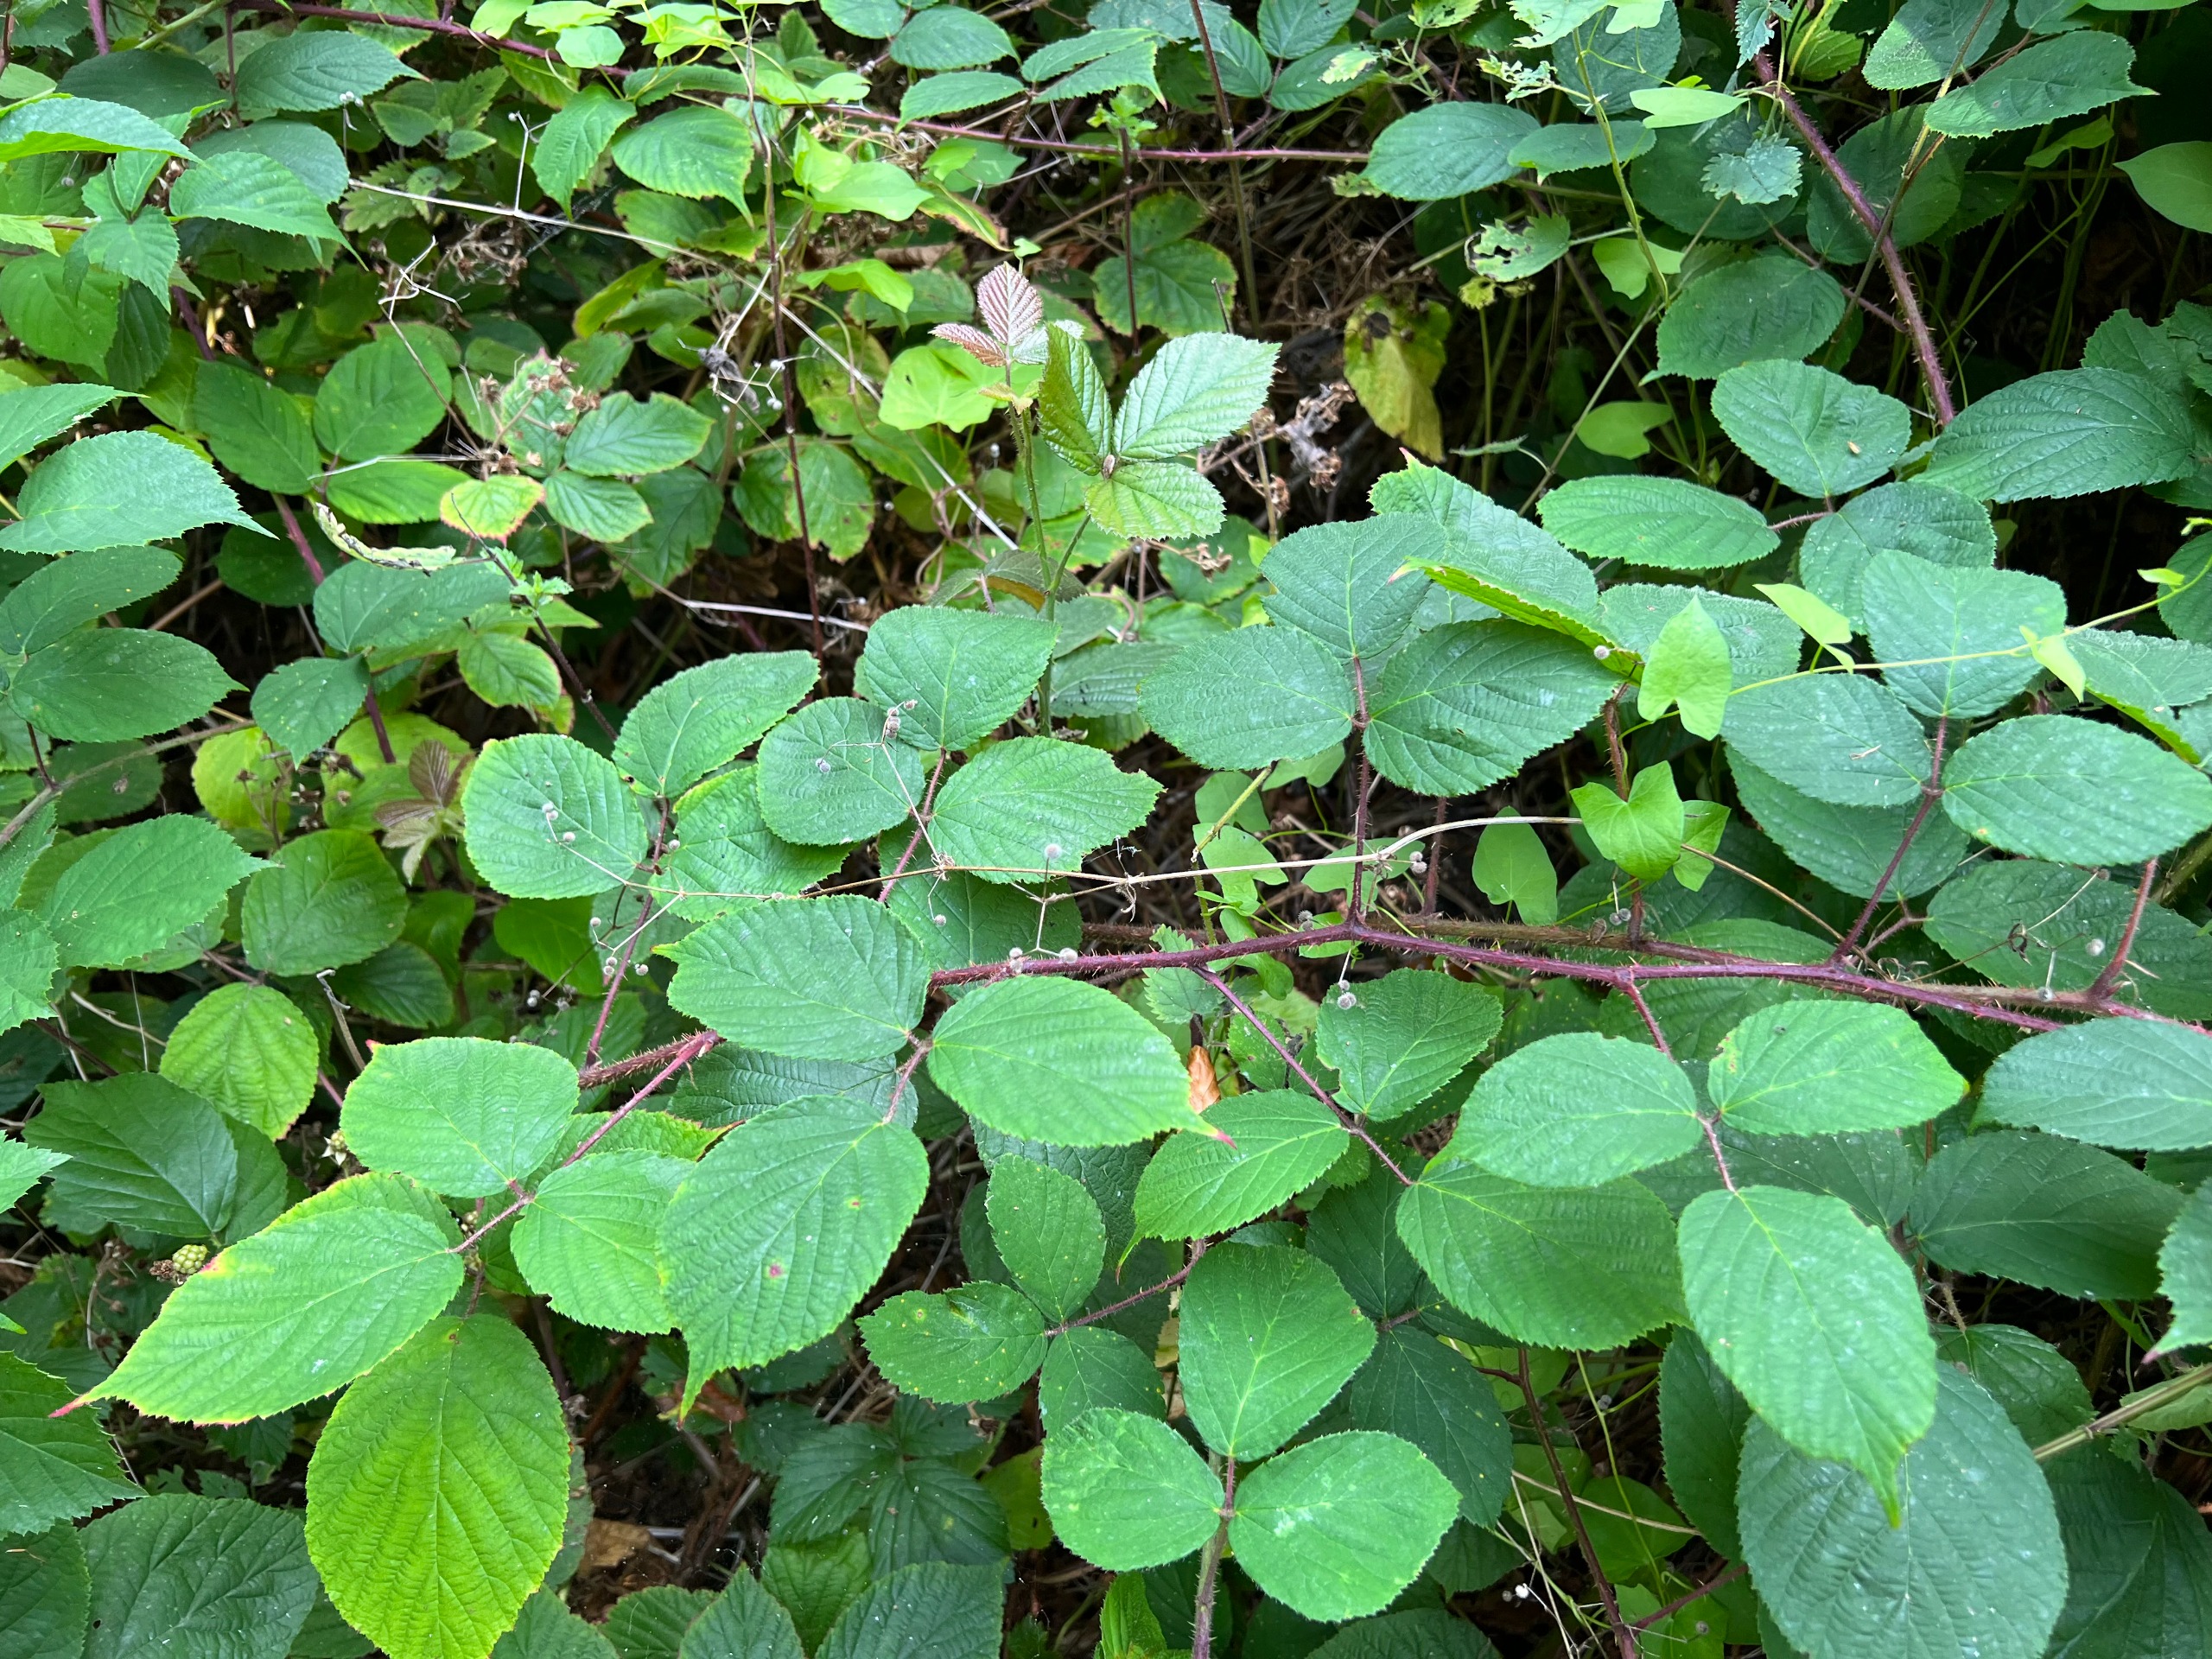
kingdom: Plantae
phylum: Tracheophyta
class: Magnoliopsida
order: Rosales
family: Rosaceae
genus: Rubus
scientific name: Rubus nigricans
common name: Trebladet brombær
